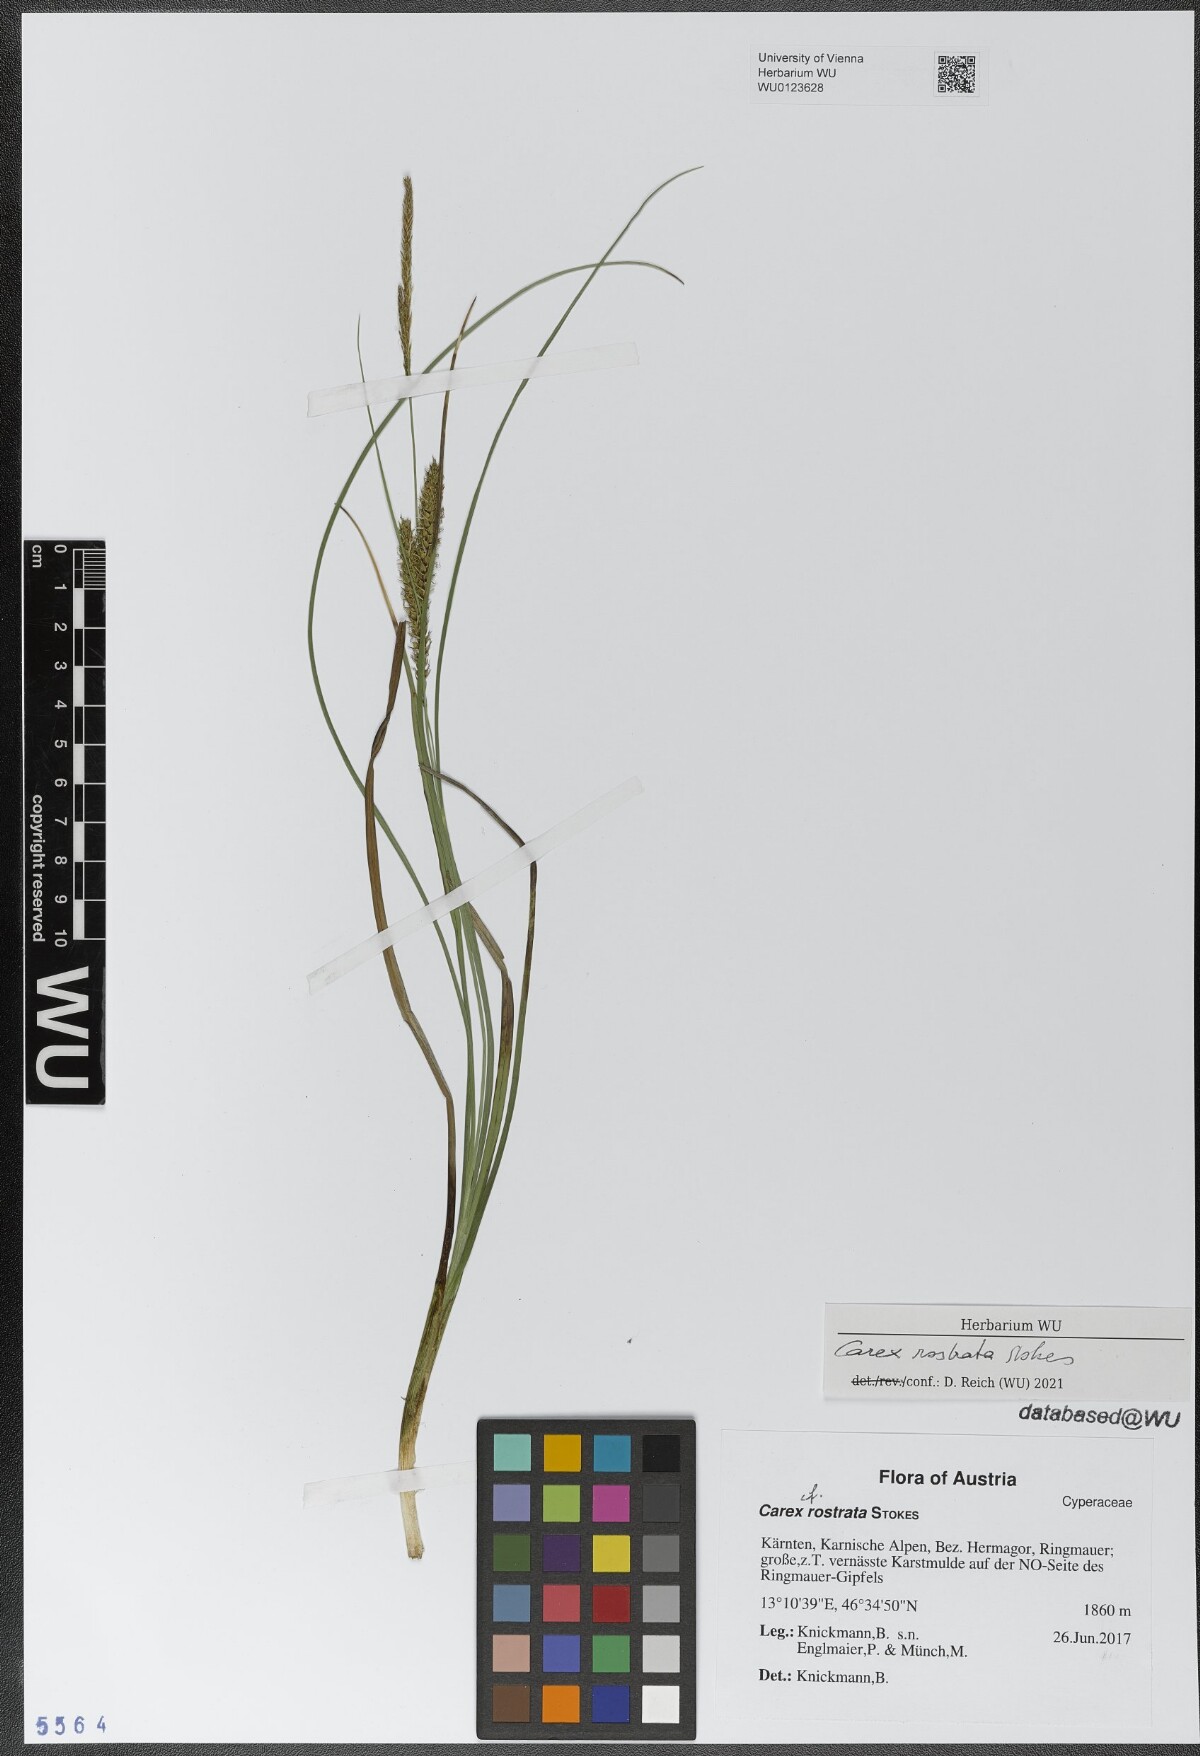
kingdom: Plantae
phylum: Tracheophyta
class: Liliopsida
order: Poales
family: Cyperaceae
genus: Carex
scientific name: Carex rostrata
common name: Bottle sedge
